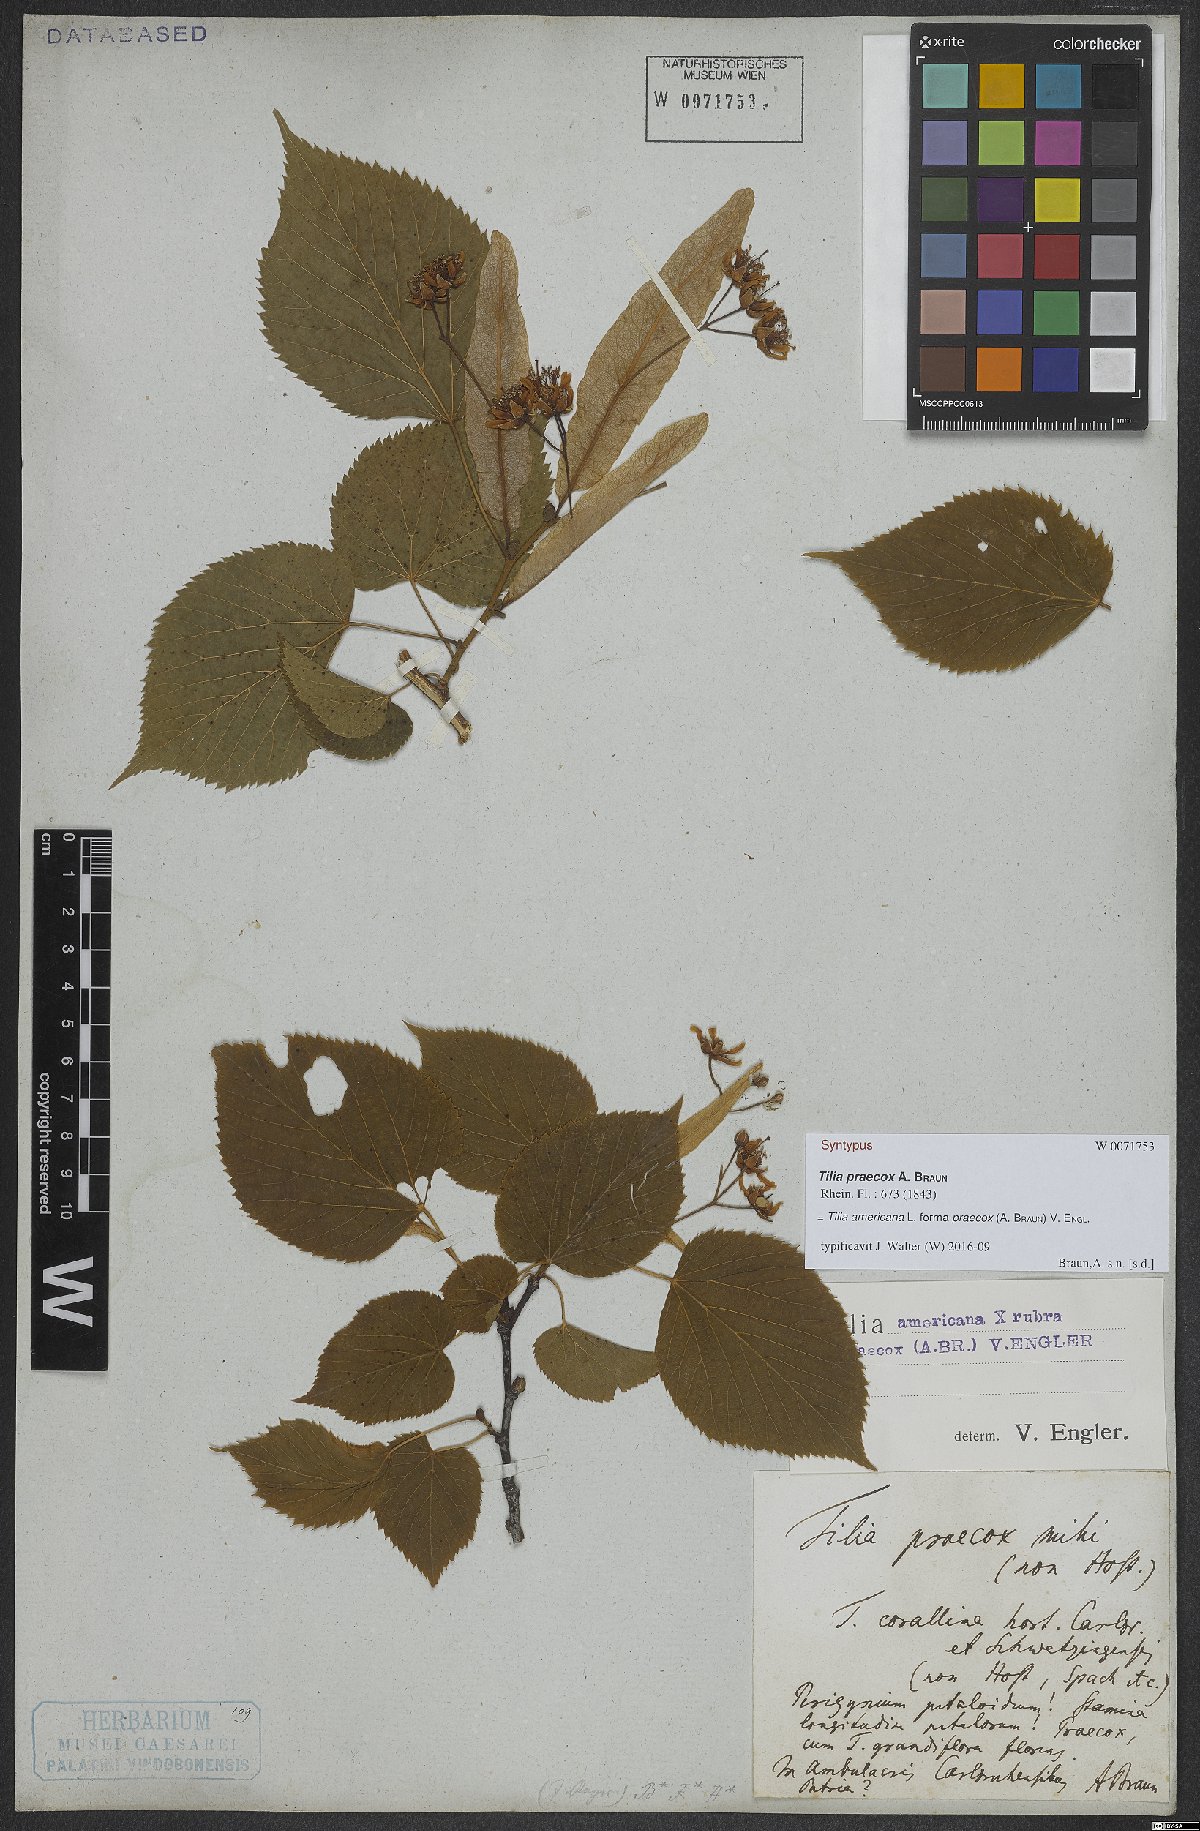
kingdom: Plantae
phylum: Tracheophyta
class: Magnoliopsida
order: Malvales
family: Malvaceae
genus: Tilia
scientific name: Tilia flaccida
